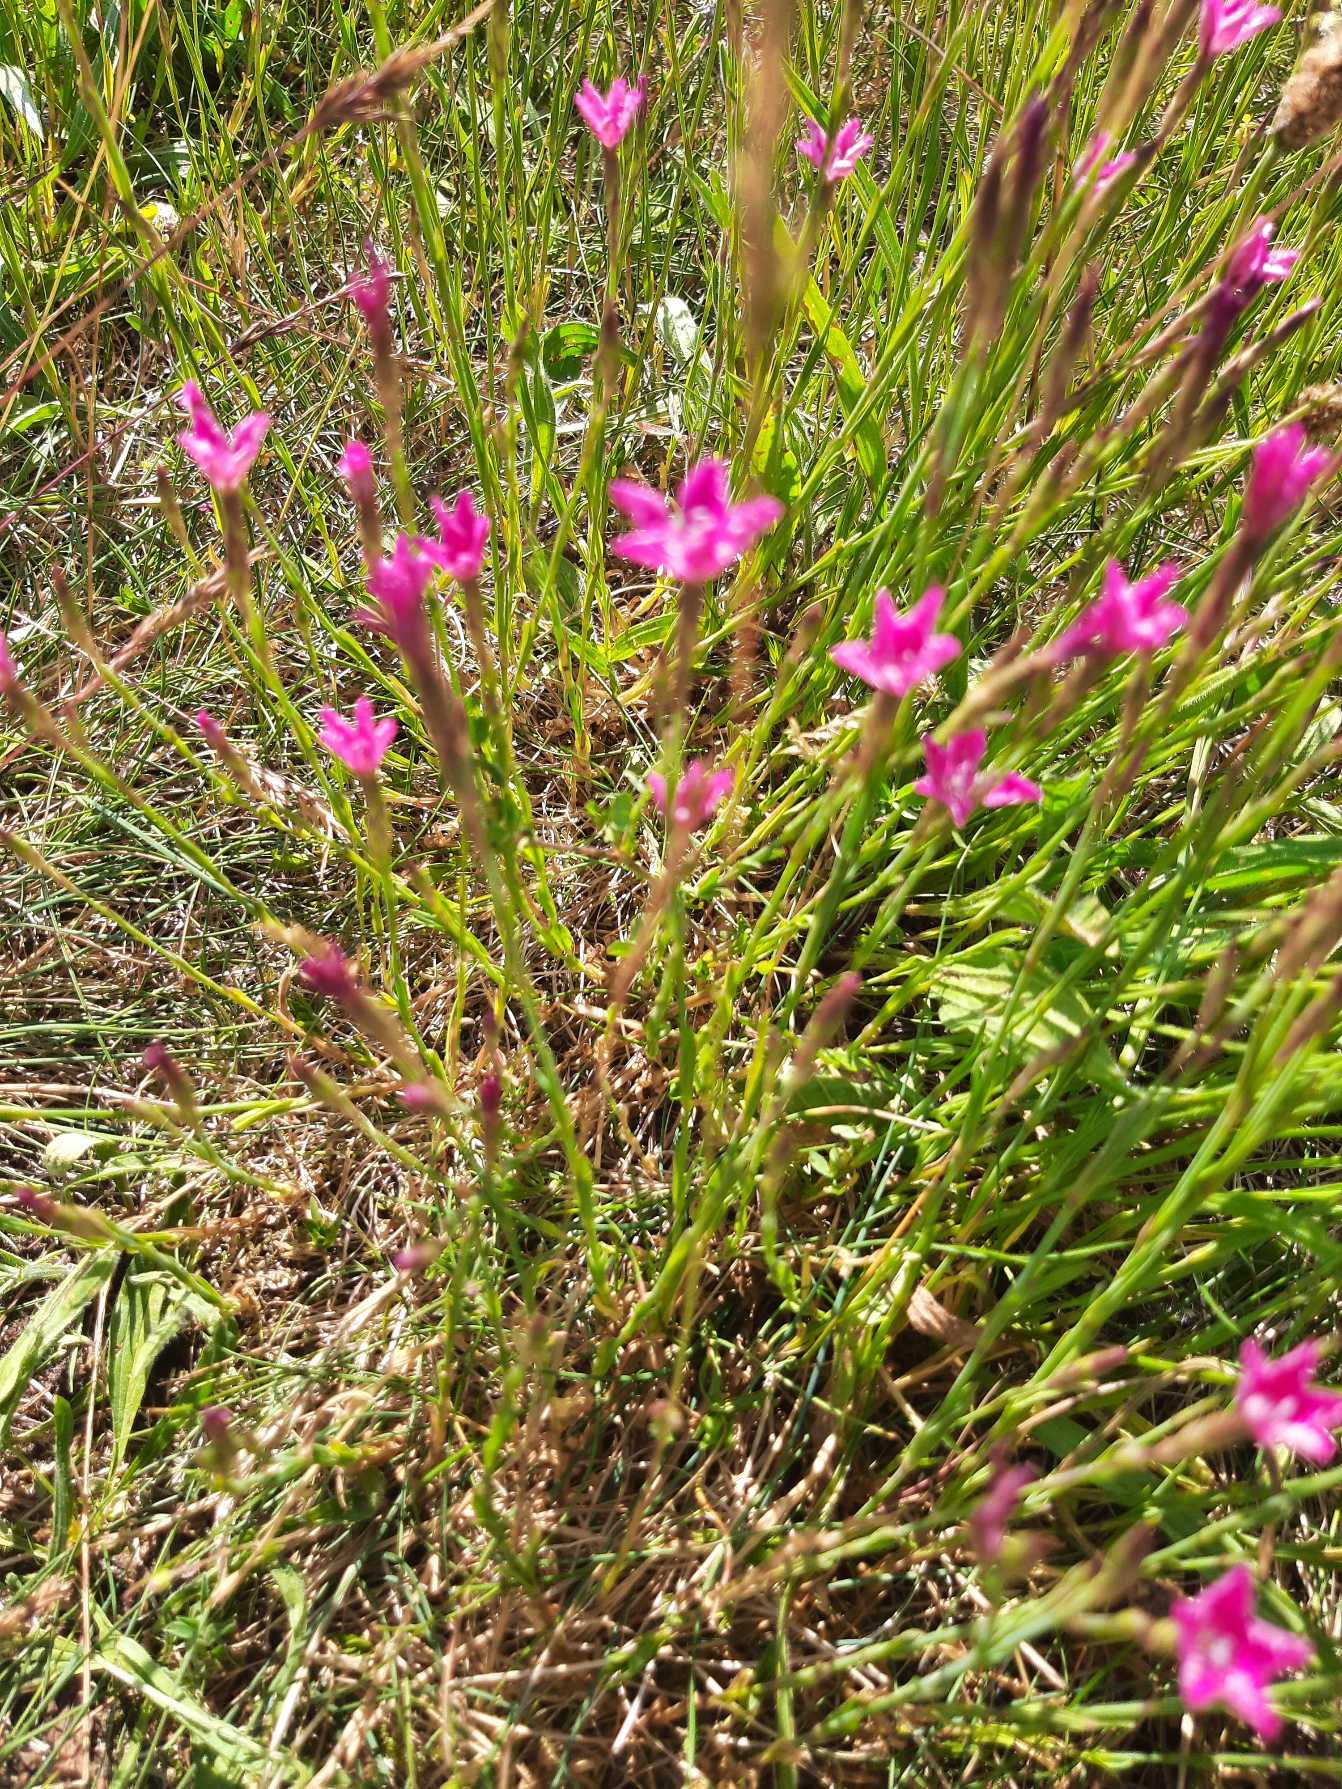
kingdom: Plantae
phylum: Tracheophyta
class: Magnoliopsida
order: Caryophyllales
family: Caryophyllaceae
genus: Dianthus
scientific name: Dianthus deltoides
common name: Bakke-nellike
